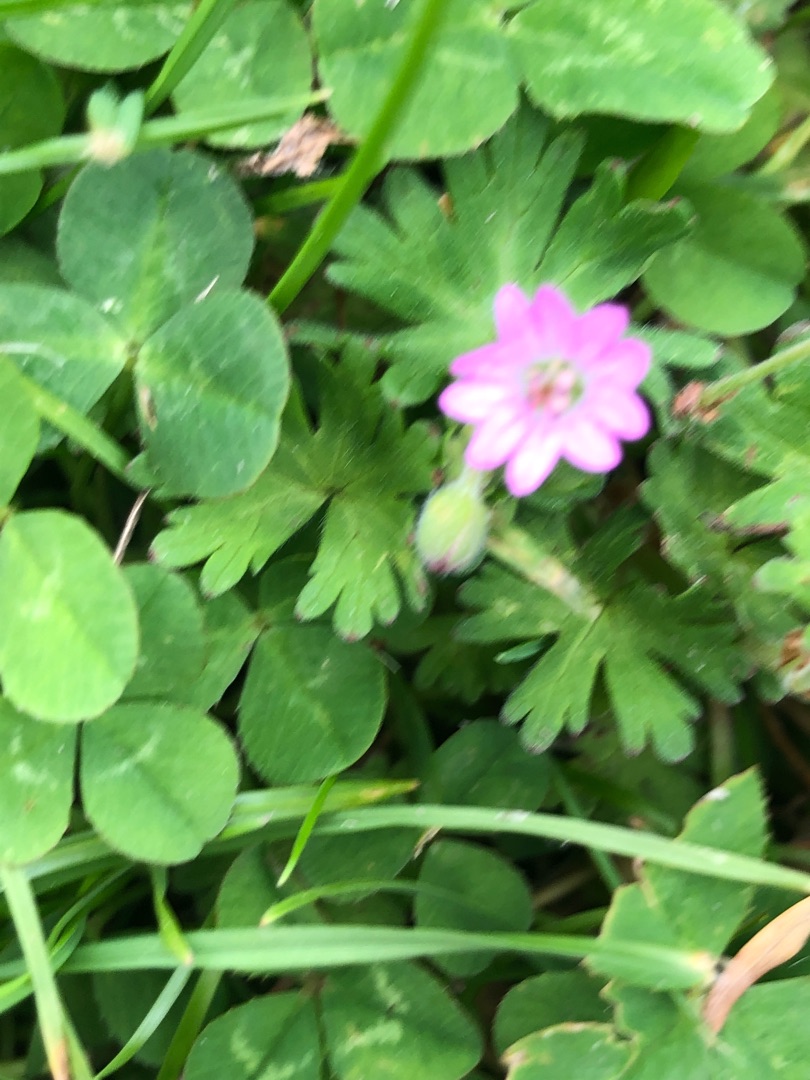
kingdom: Plantae
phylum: Tracheophyta
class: Magnoliopsida
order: Geraniales
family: Geraniaceae
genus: Geranium
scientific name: Geranium molle
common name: Blød storkenæb
